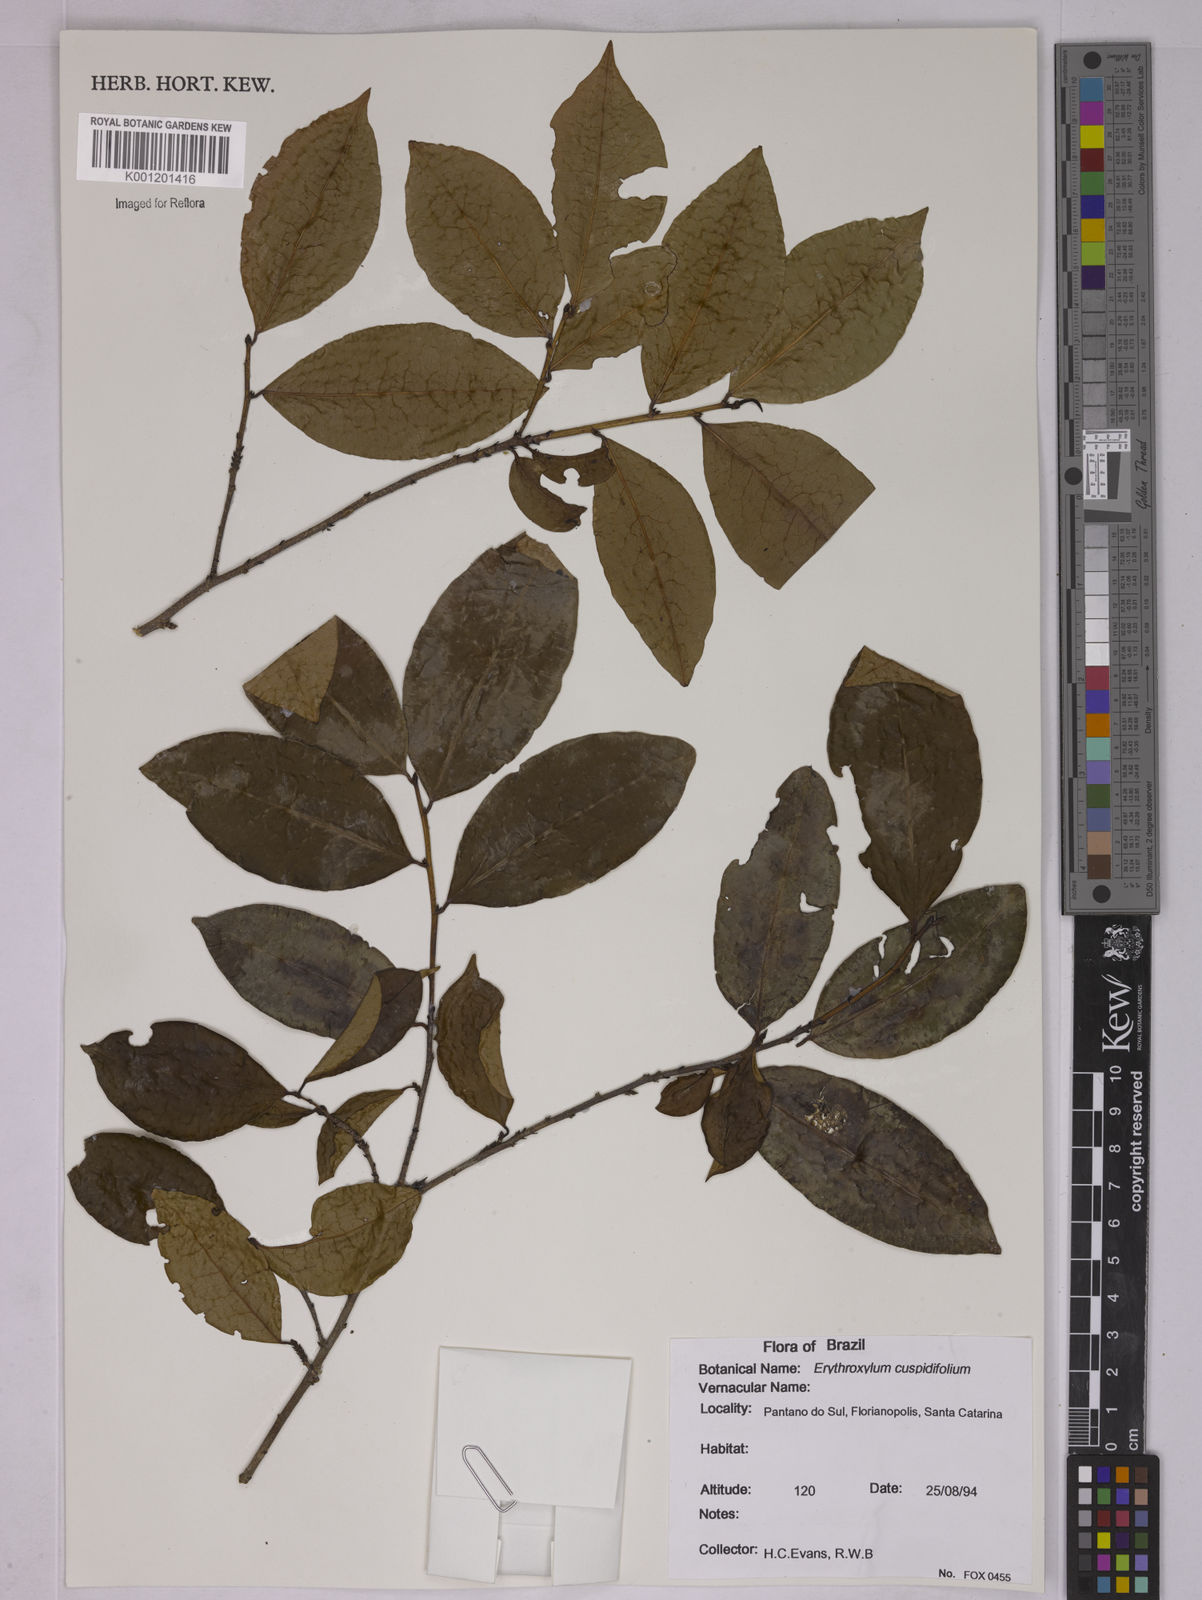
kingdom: Plantae
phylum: Tracheophyta
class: Magnoliopsida
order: Malpighiales
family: Erythroxylaceae
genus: Erythroxylum
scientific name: Erythroxylum cuspidifolium
